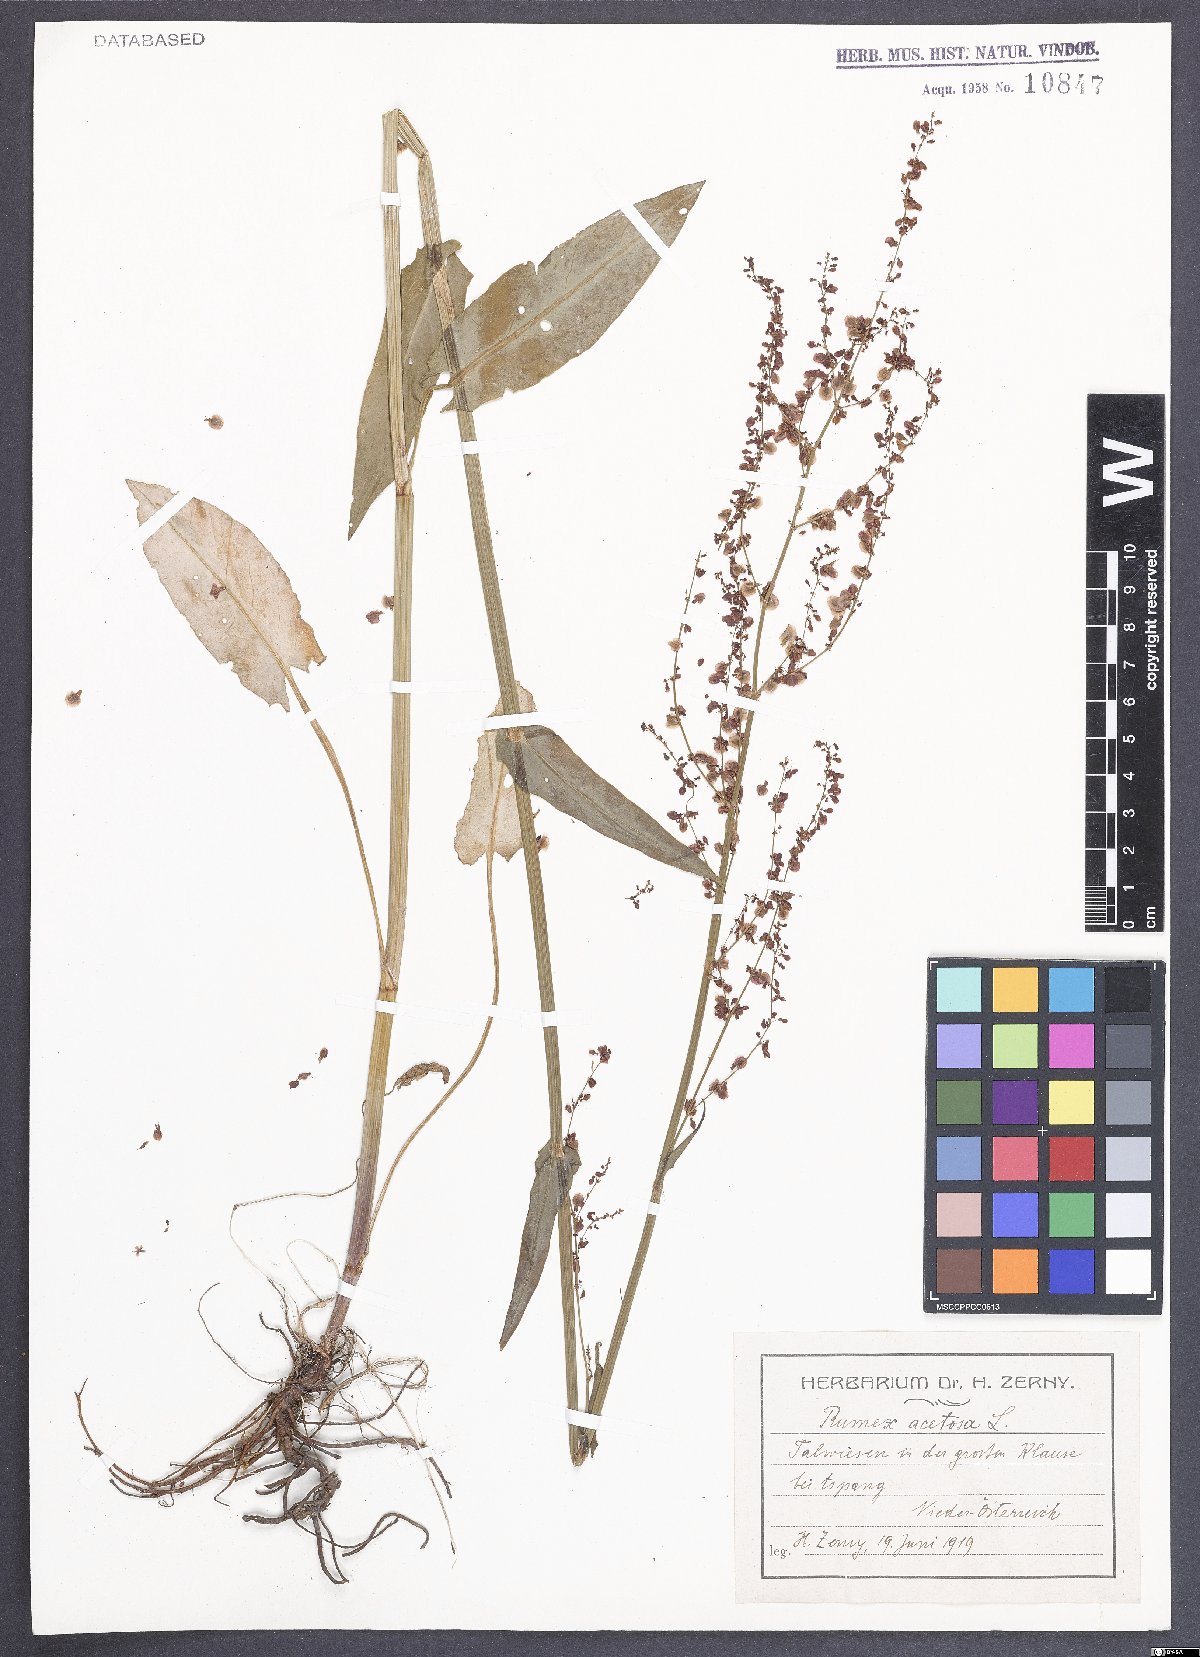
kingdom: Plantae
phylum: Tracheophyta
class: Magnoliopsida
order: Caryophyllales
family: Polygonaceae
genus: Rumex
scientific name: Rumex acetosa
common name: Garden sorrel
